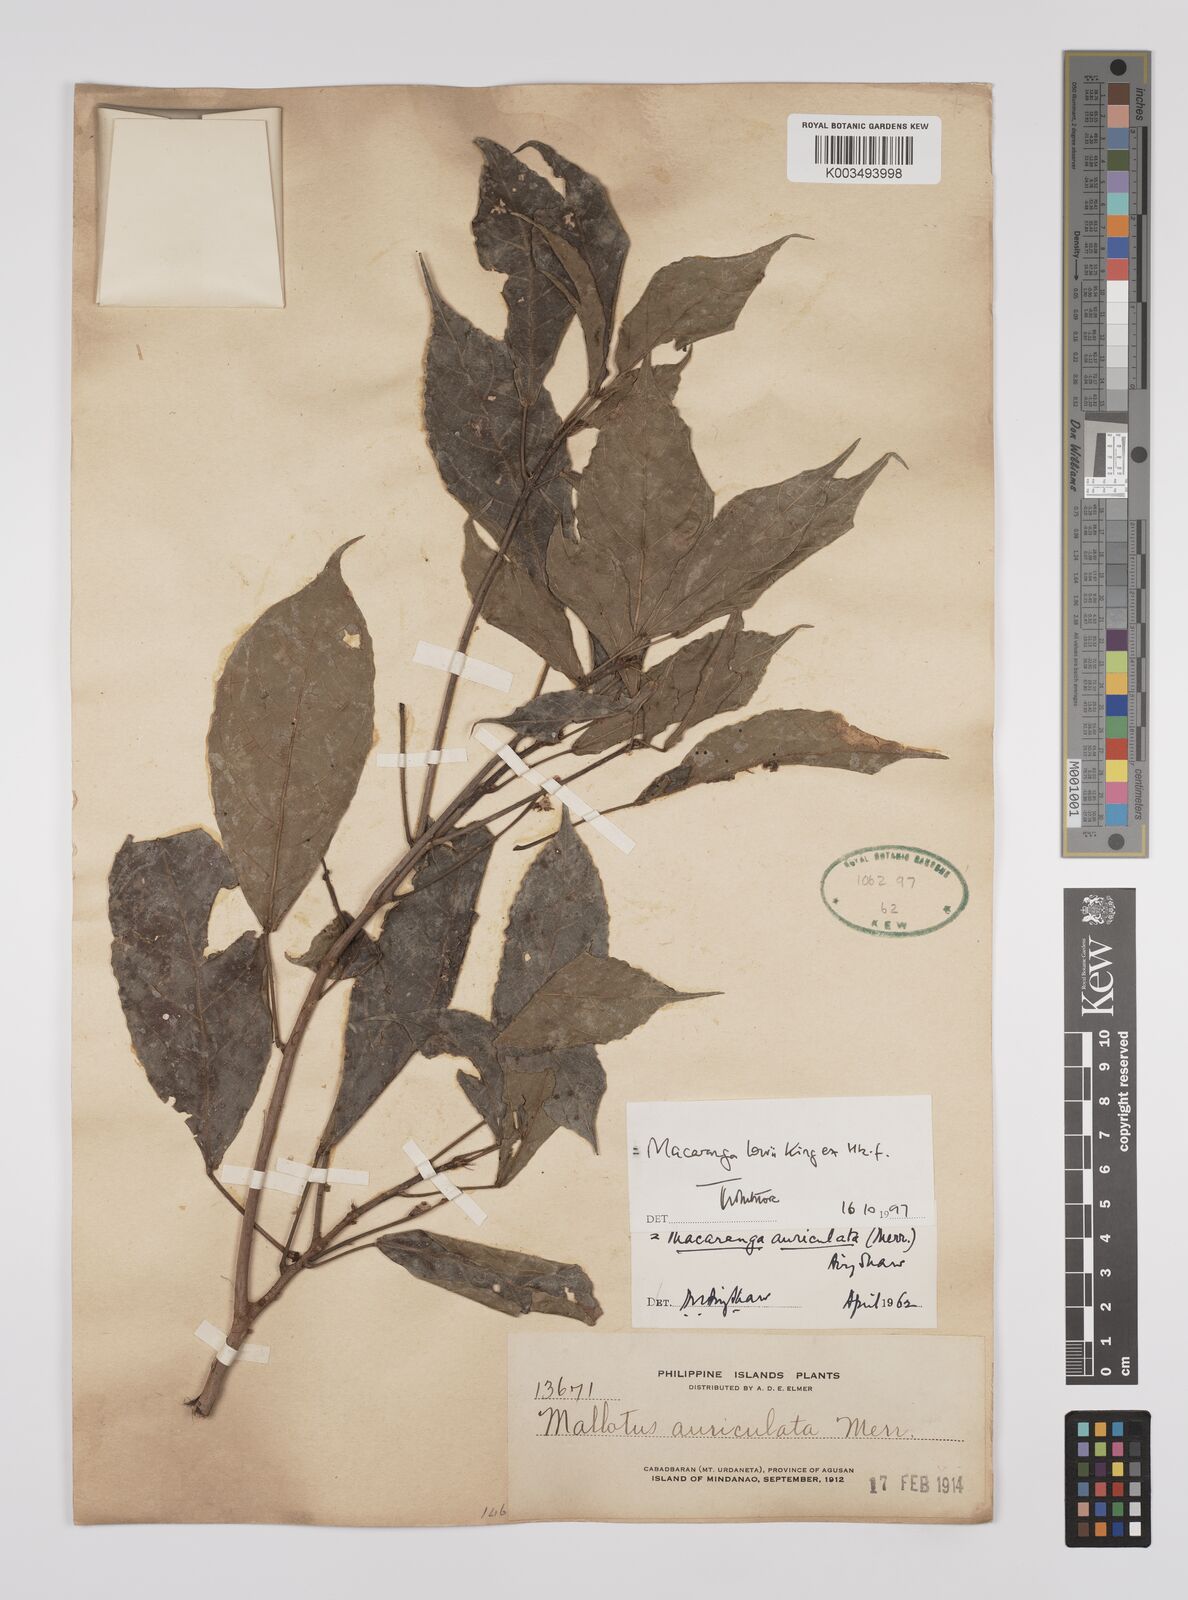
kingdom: Plantae
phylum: Tracheophyta
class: Magnoliopsida
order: Malpighiales
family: Euphorbiaceae
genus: Macaranga
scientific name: Macaranga lowii
